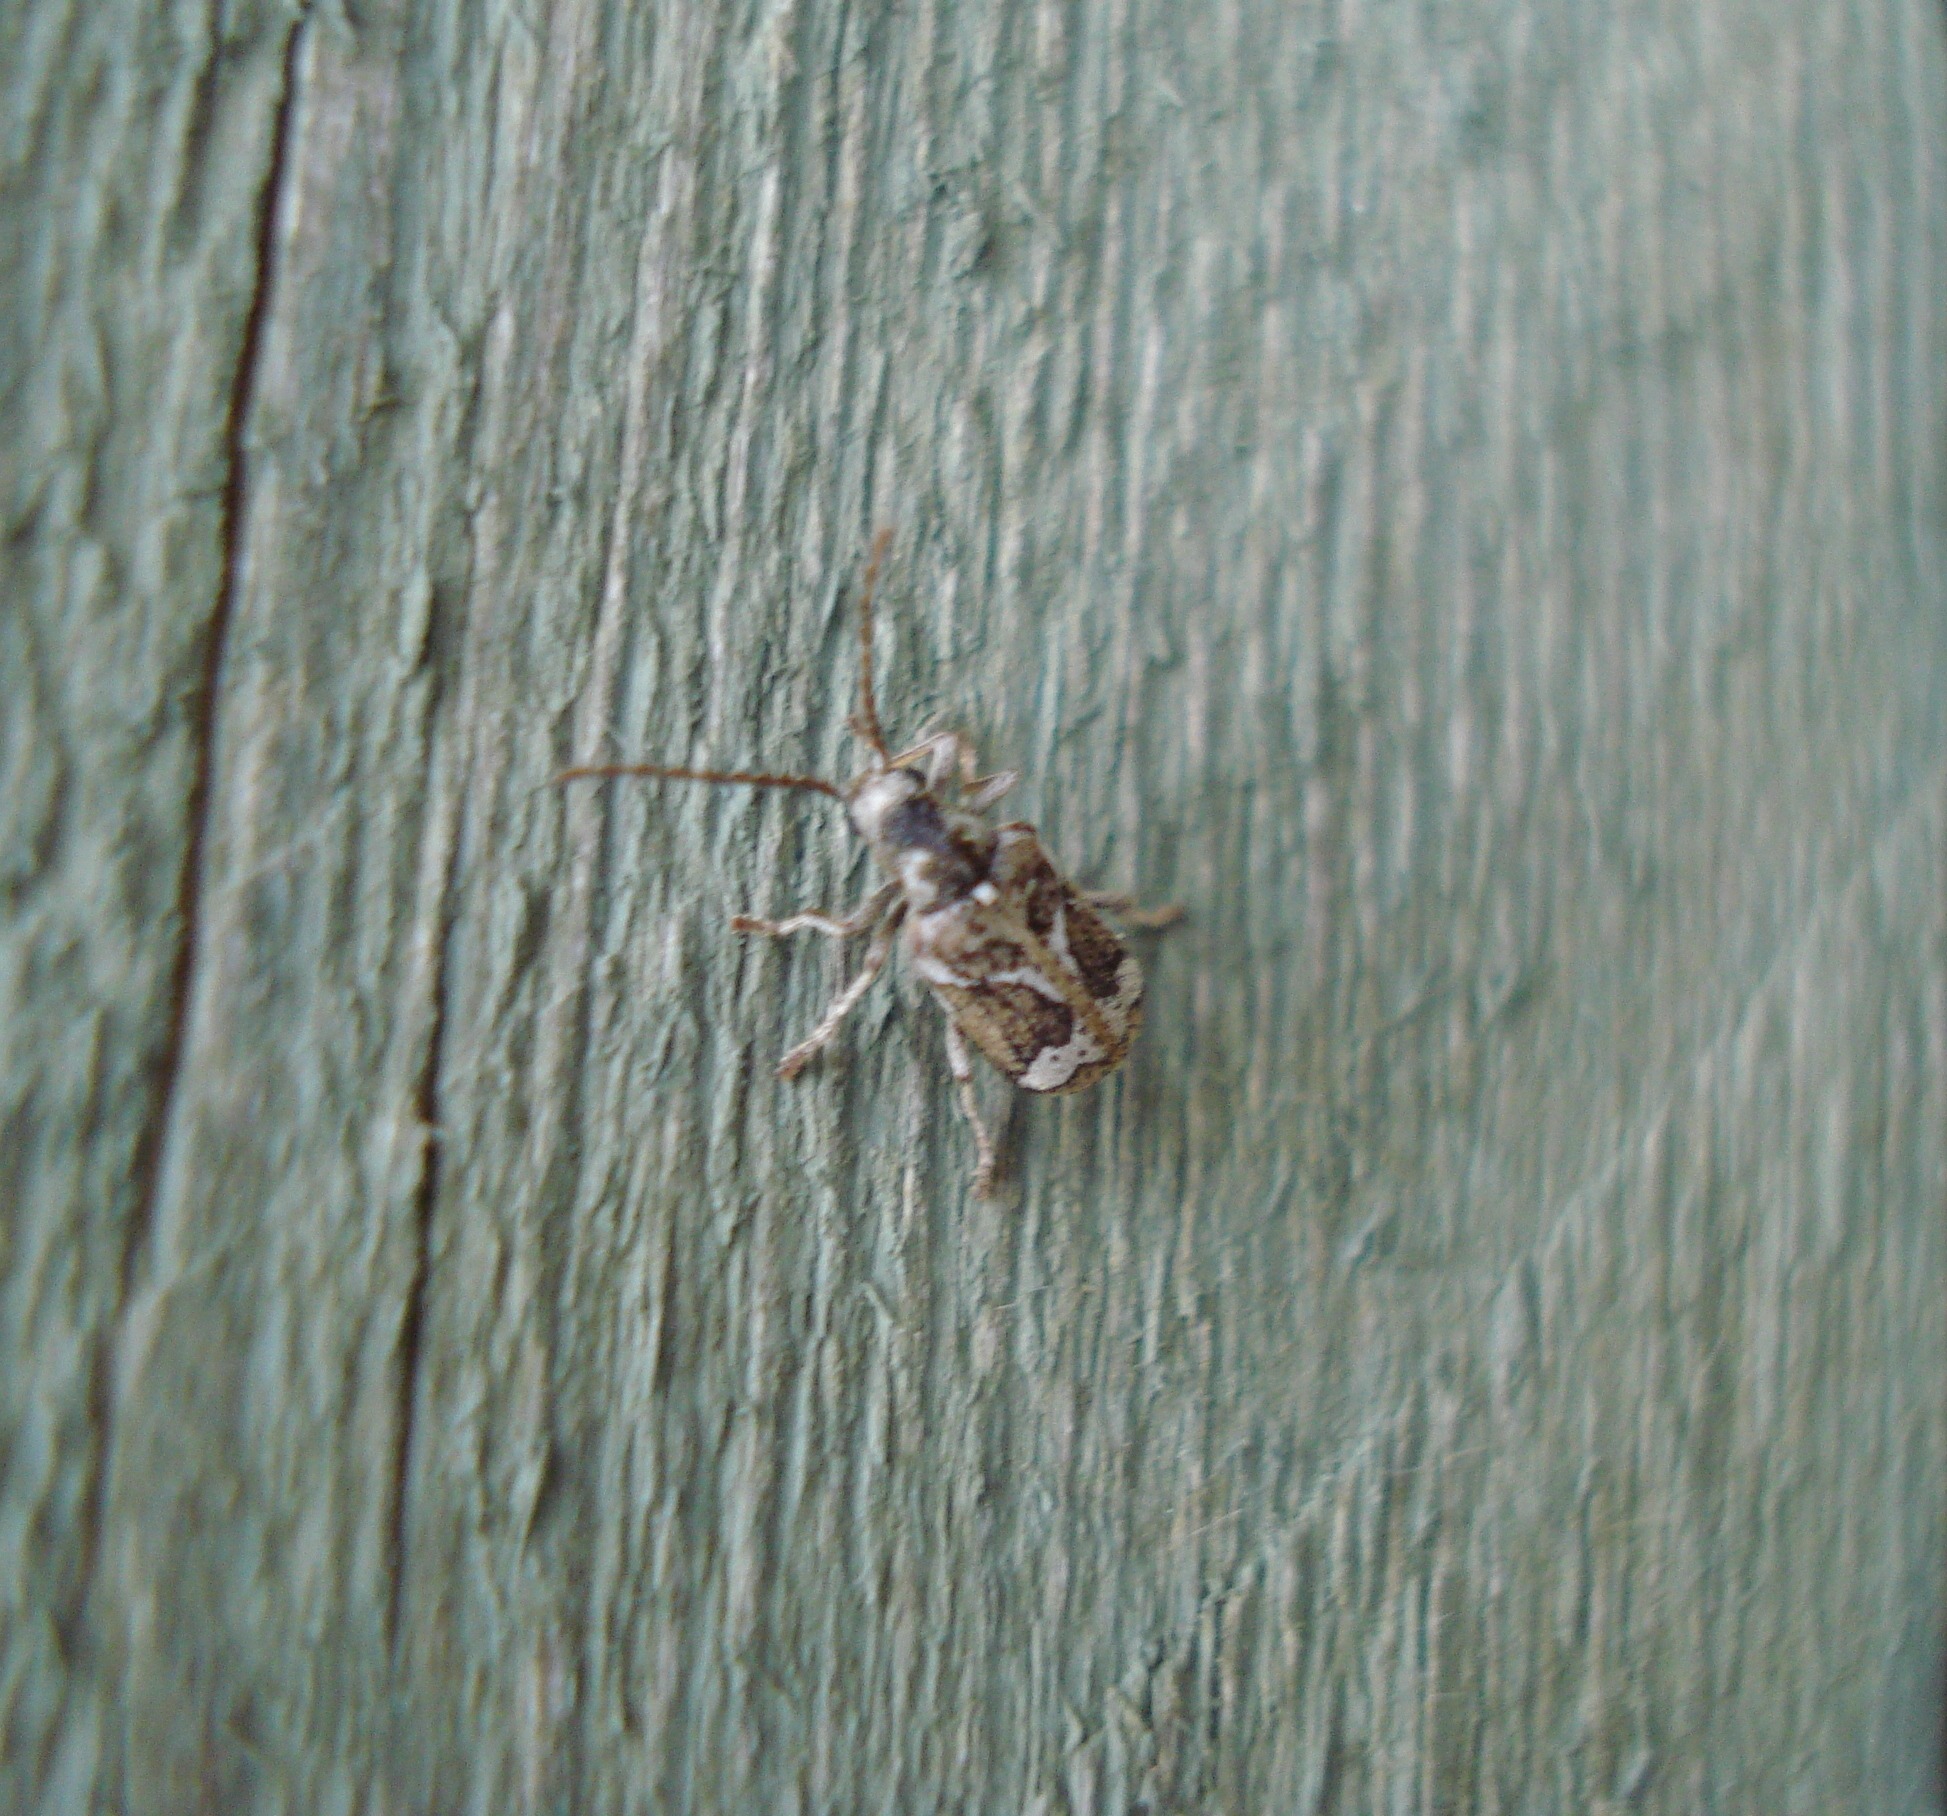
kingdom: Animalia
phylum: Arthropoda
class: Insecta
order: Coleoptera
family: Anobiidae
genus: Ptinomorphus
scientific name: Ptinomorphus imperialis
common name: Hvidbroget borebille
